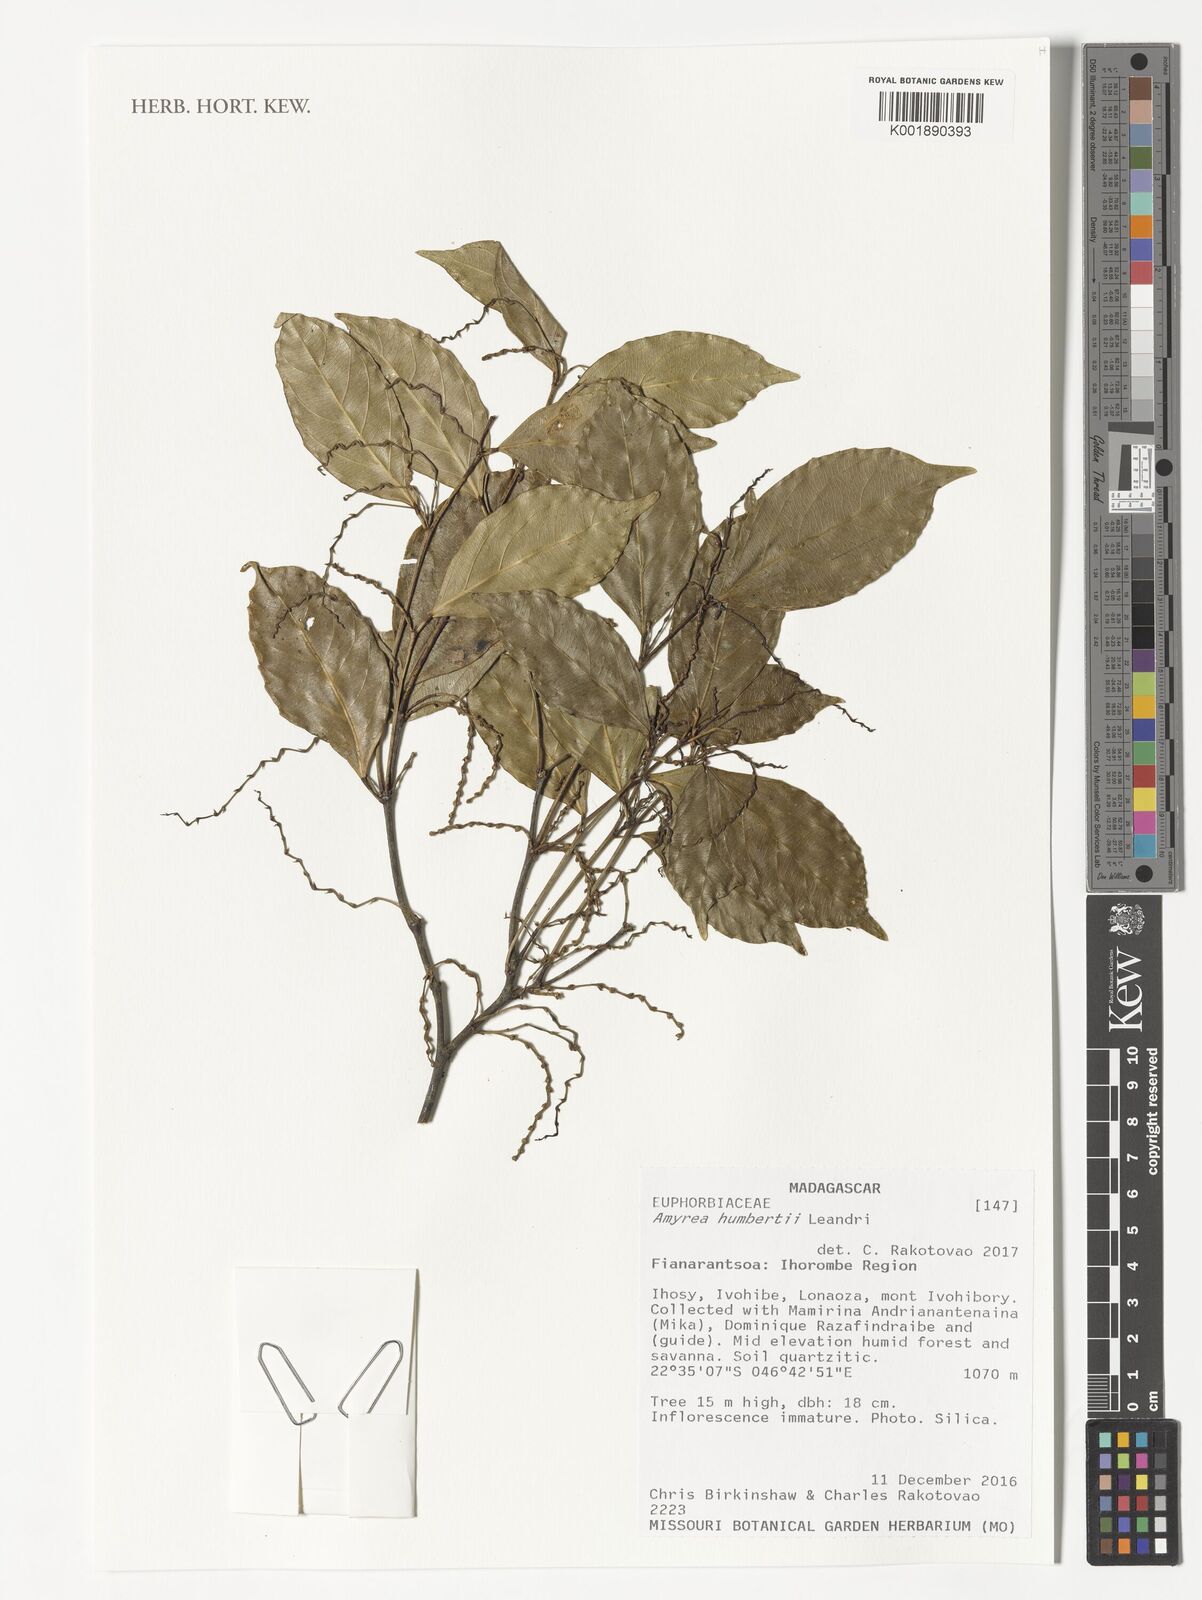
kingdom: Plantae
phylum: Tracheophyta
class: Magnoliopsida
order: Malpighiales
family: Euphorbiaceae
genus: Amyrea
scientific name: Amyrea humbertii
